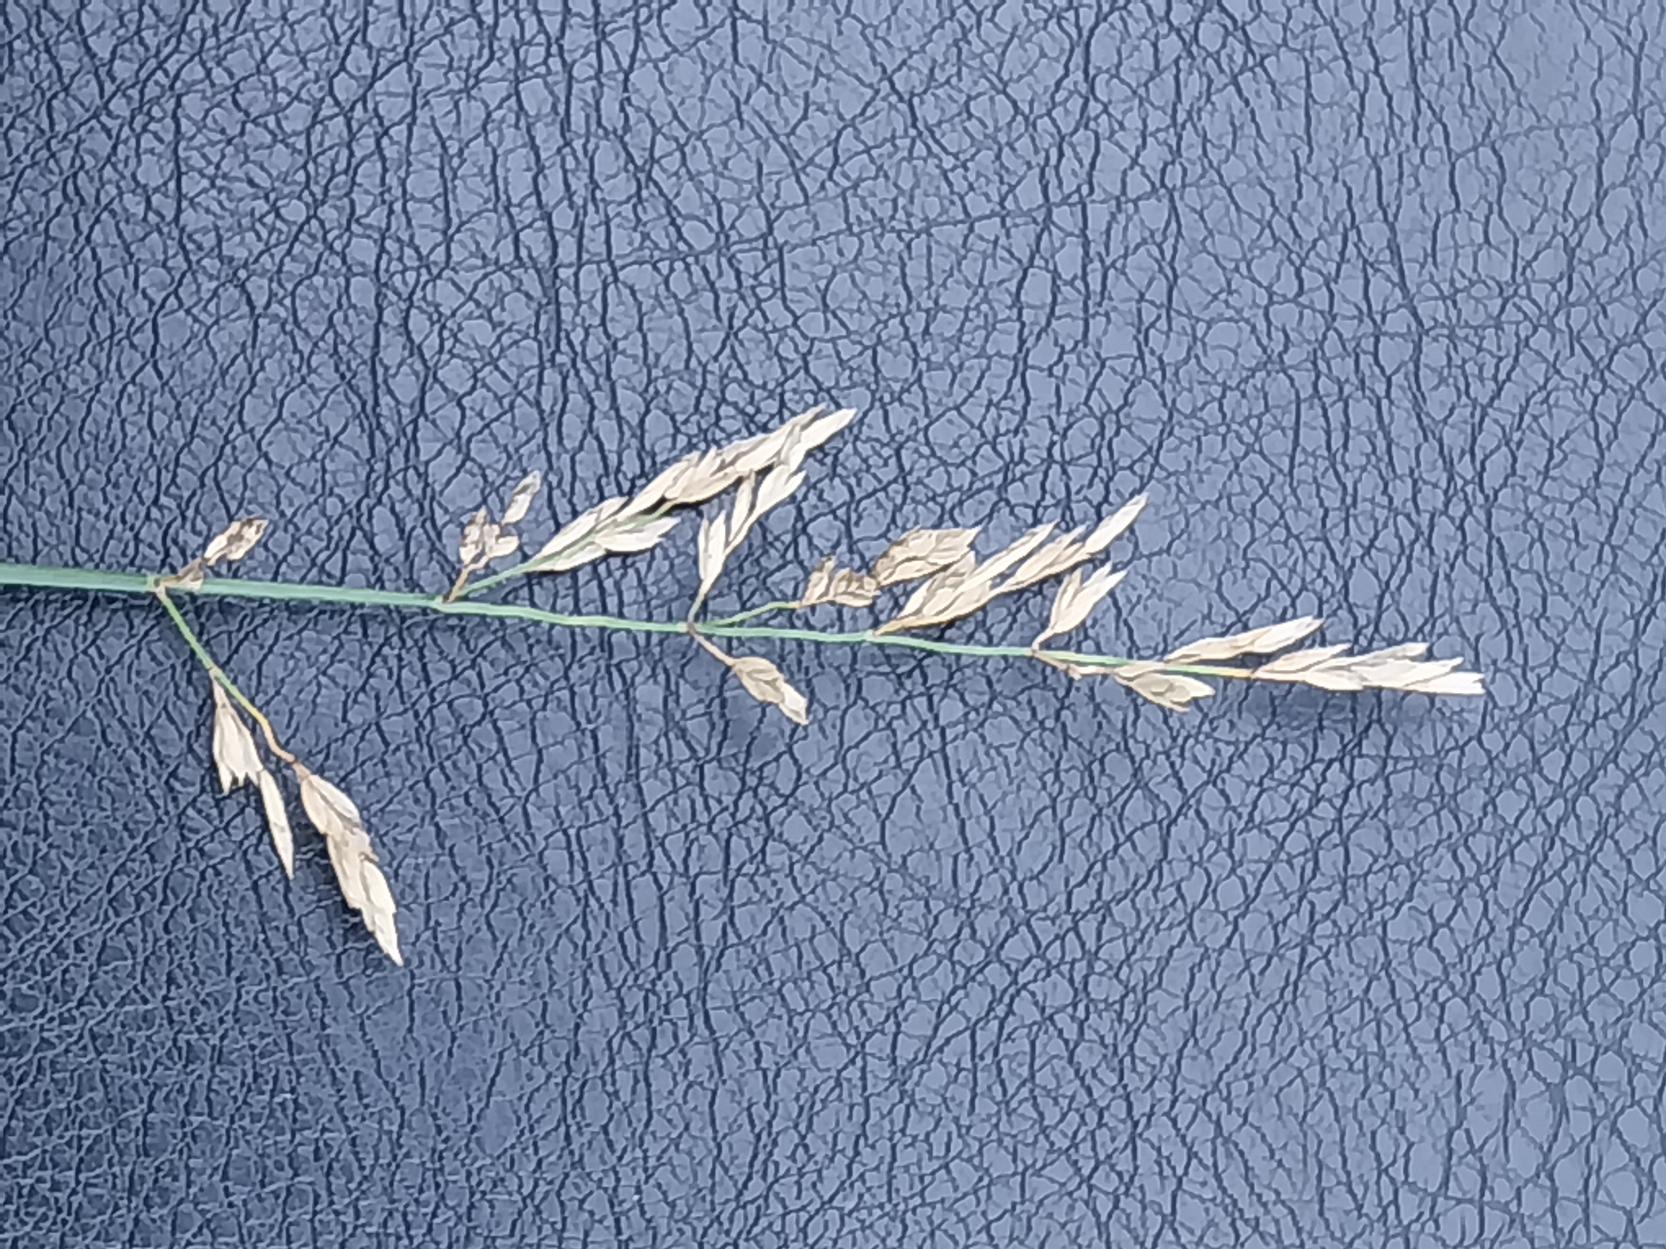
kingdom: Plantae
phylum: Tracheophyta
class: Liliopsida
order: Poales
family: Poaceae
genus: Poa
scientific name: Poa compressa
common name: Fladstrået rapgræs
